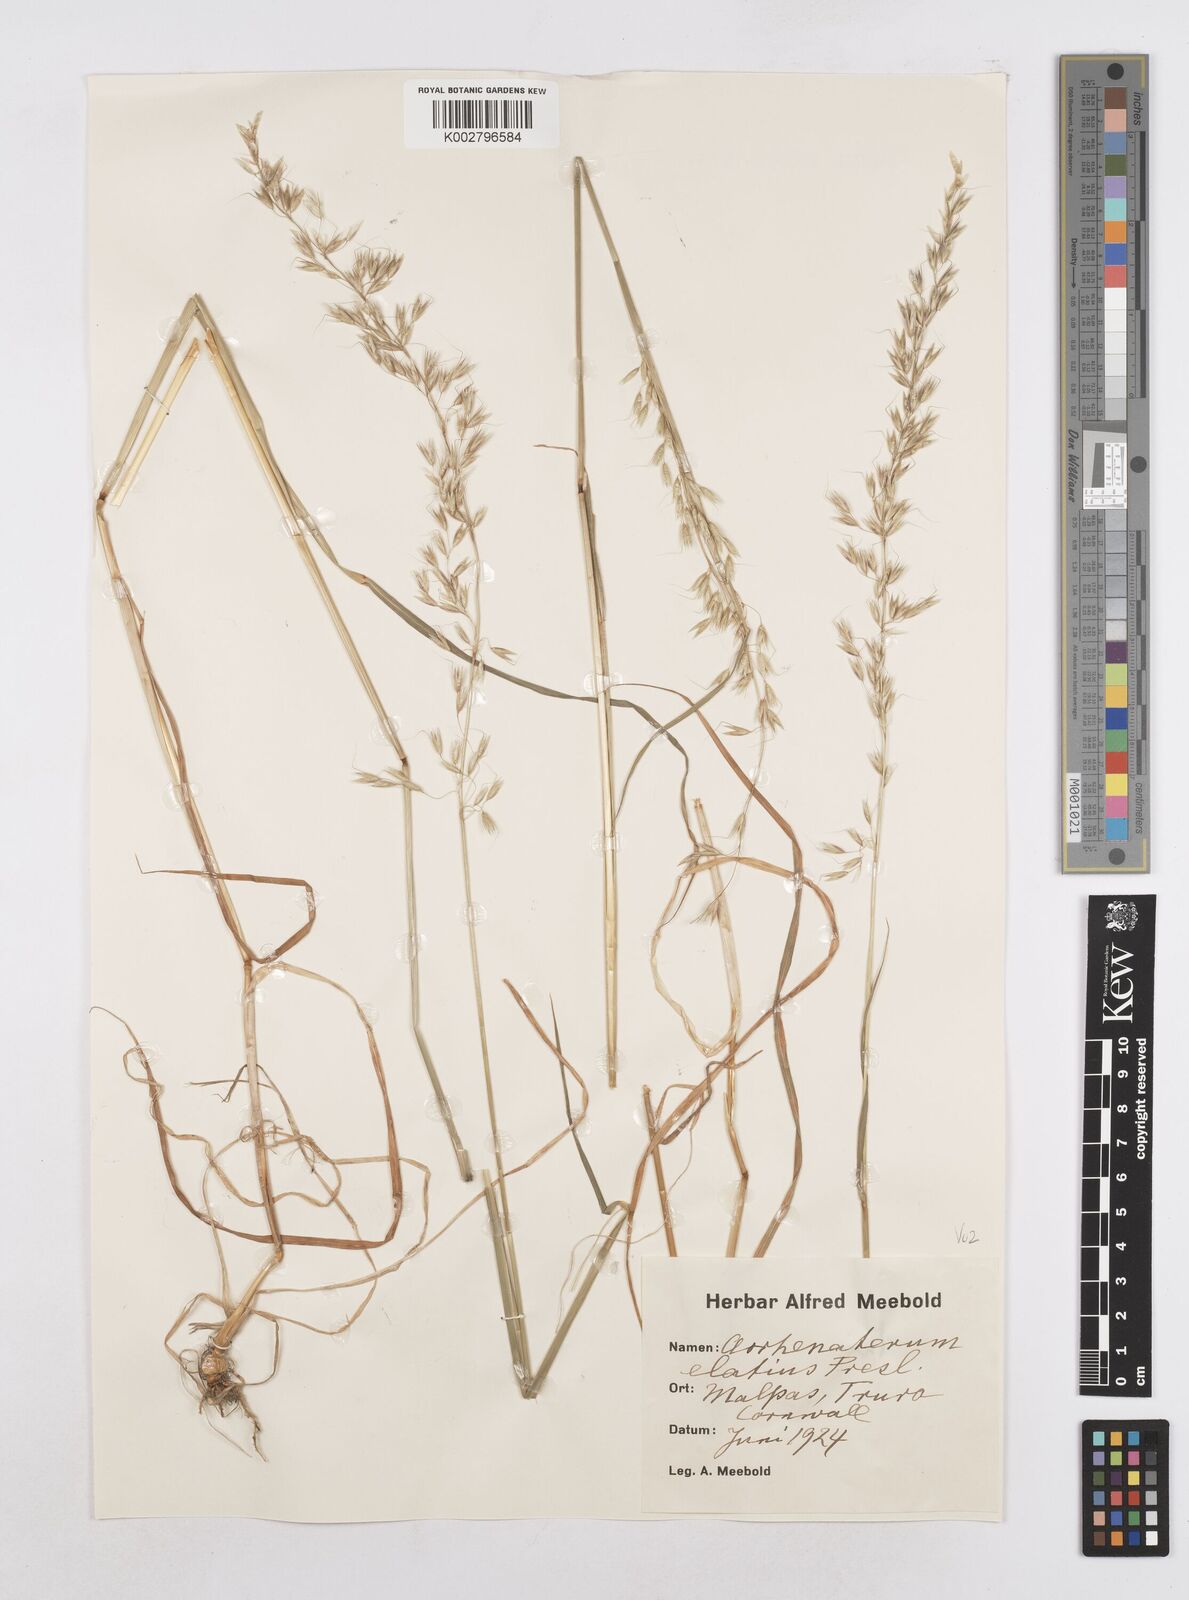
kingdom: Plantae
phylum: Tracheophyta
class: Liliopsida
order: Poales
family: Poaceae
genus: Arrhenatherum
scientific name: Arrhenatherum elatius
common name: Tall oatgrass
